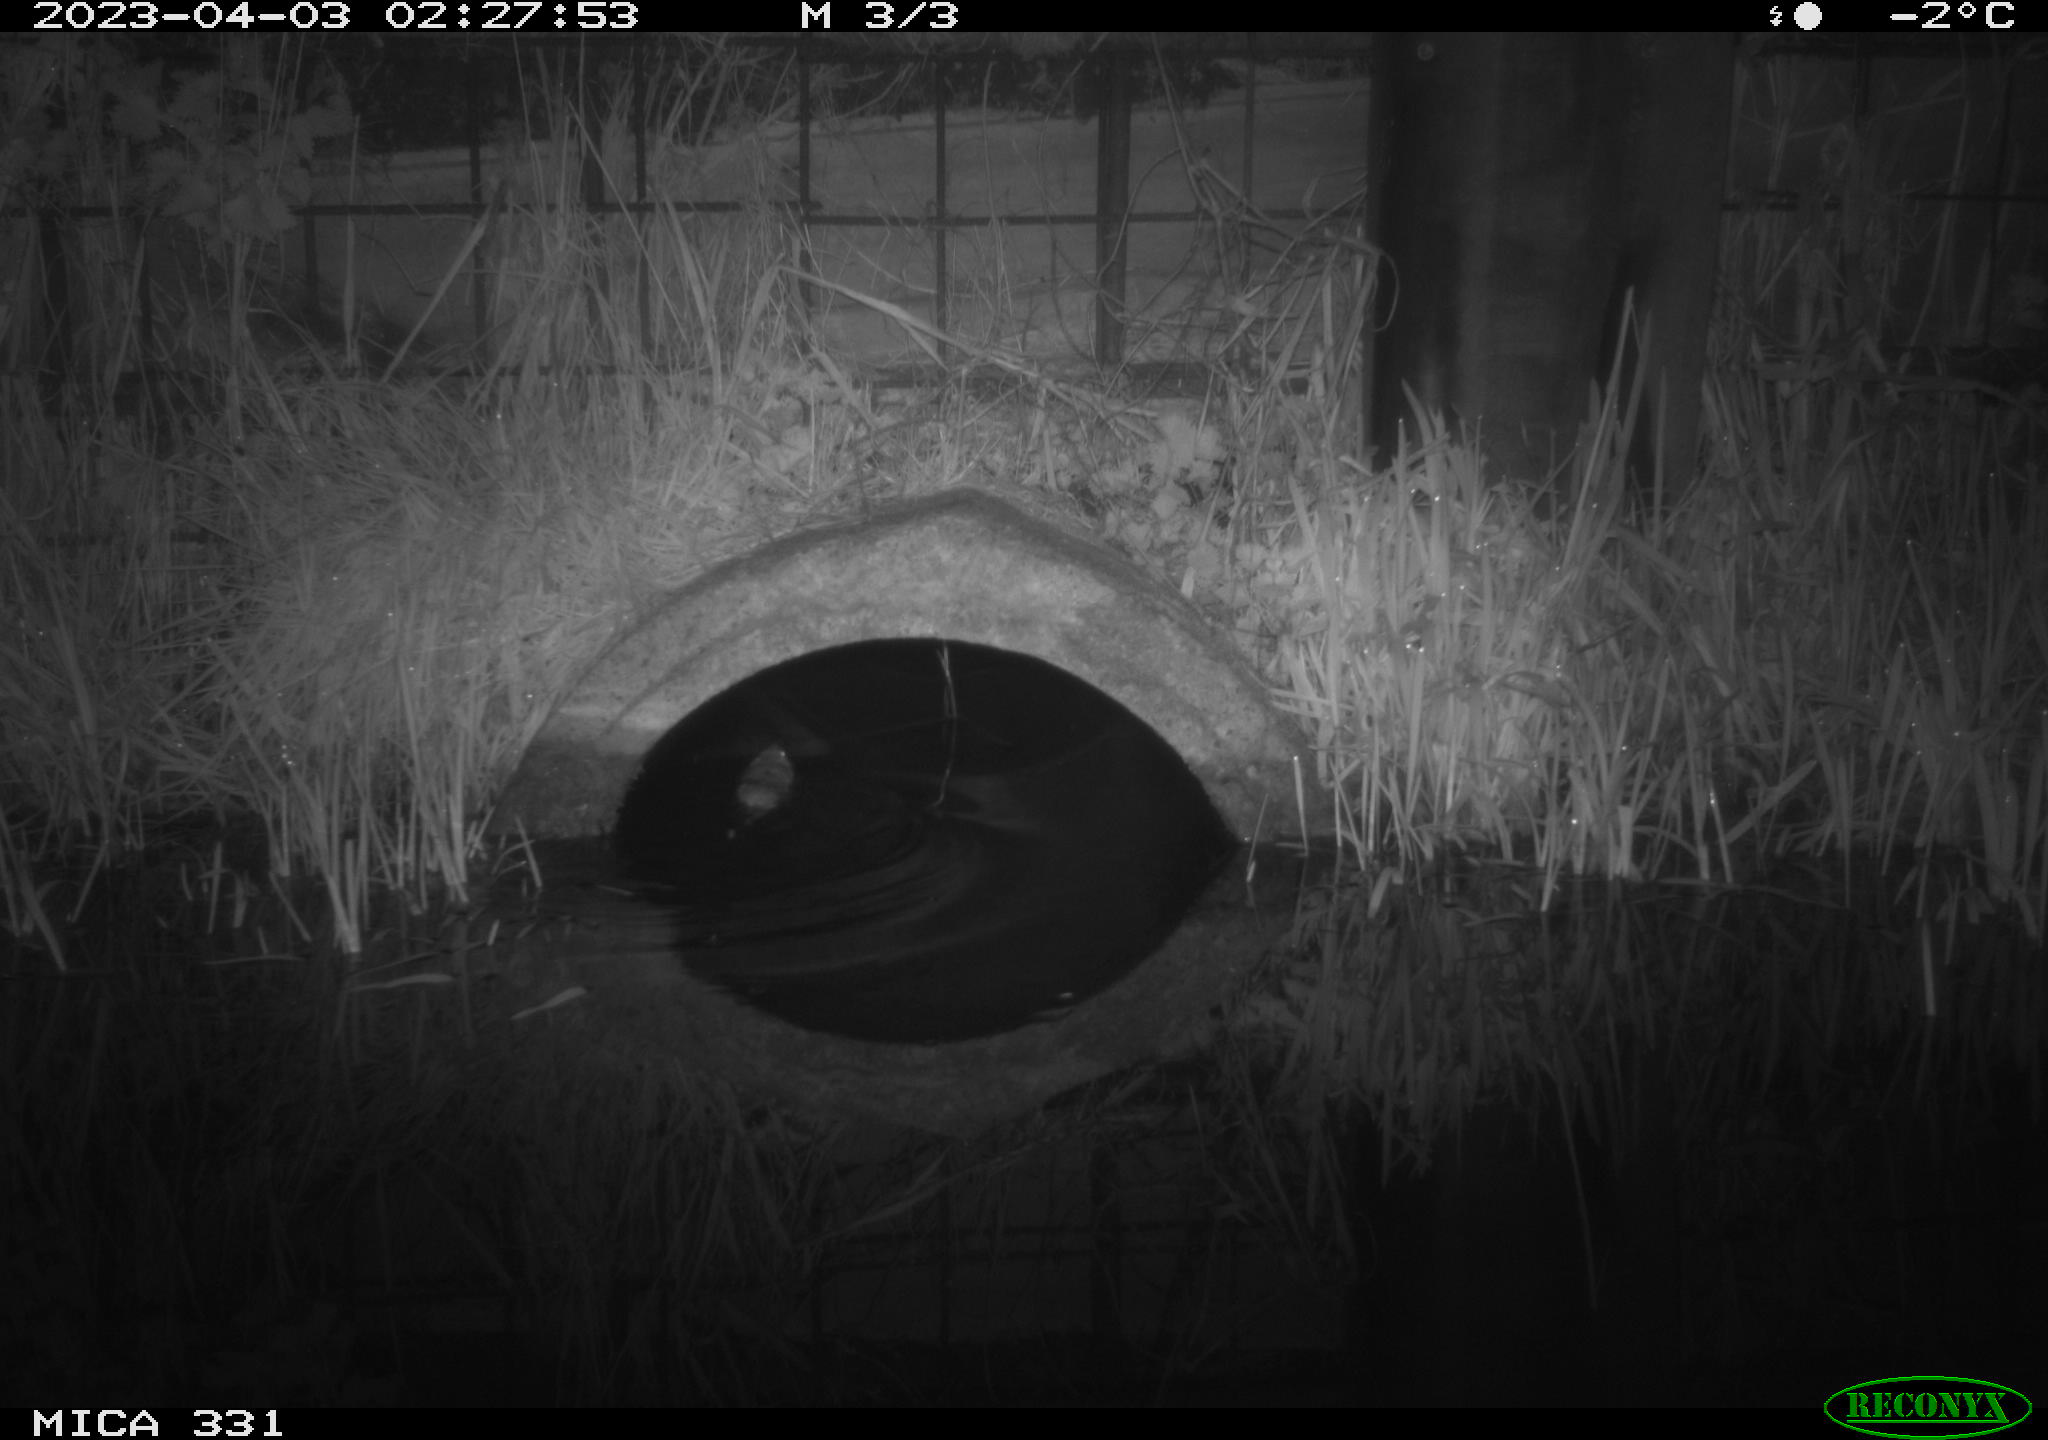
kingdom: Animalia
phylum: Chordata
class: Mammalia
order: Rodentia
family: Muridae
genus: Rattus
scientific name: Rattus norvegicus
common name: Brown rat
